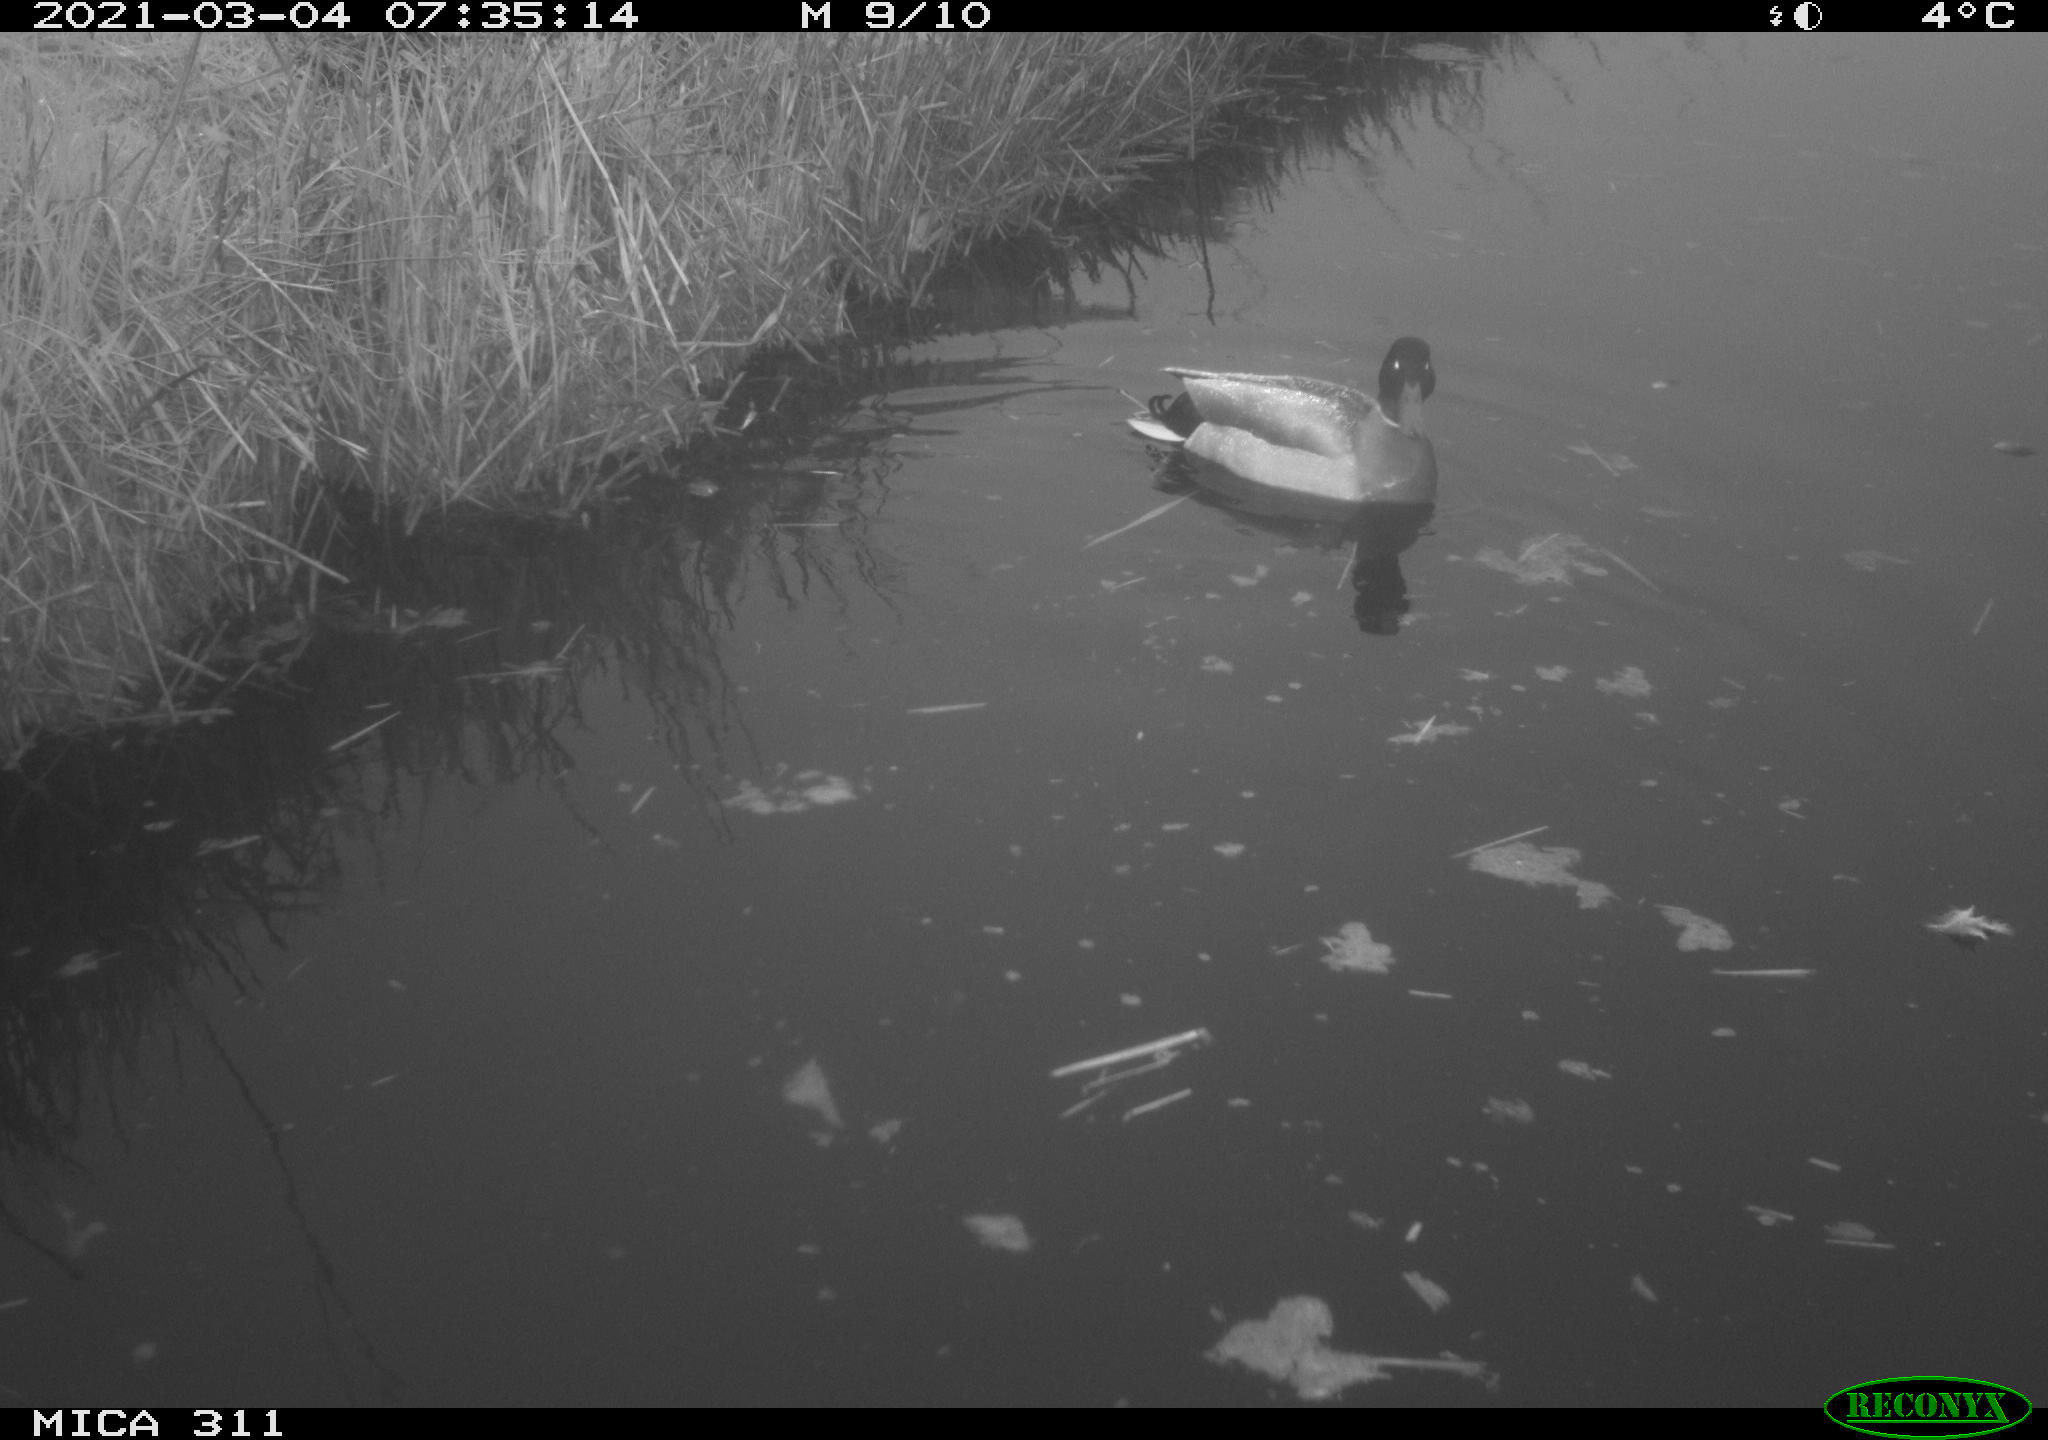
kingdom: Animalia
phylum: Chordata
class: Aves
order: Anseriformes
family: Anatidae
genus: Anas
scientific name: Anas
